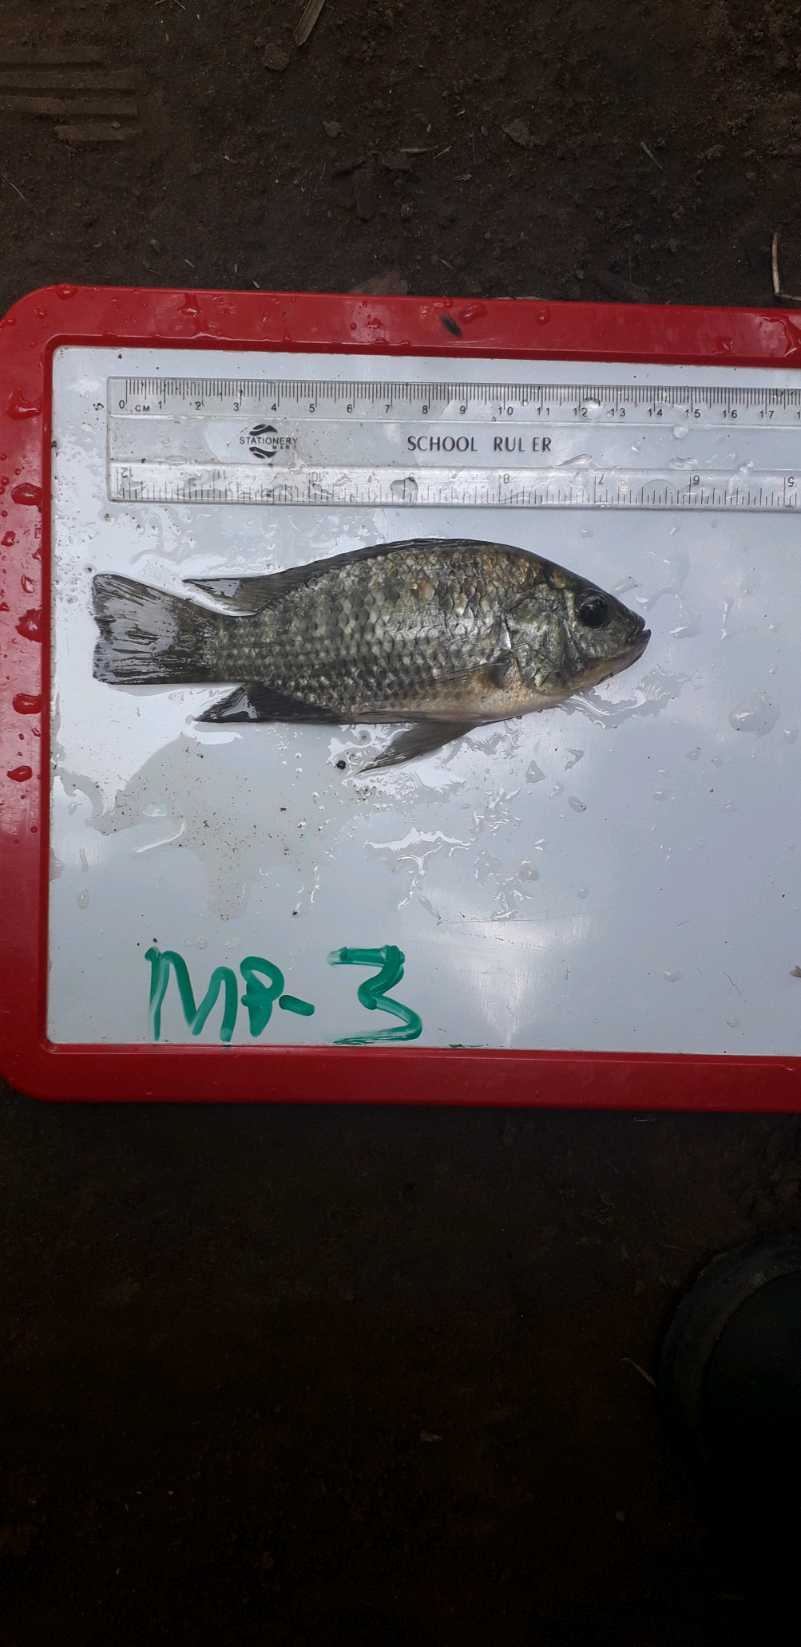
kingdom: Animalia
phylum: Chordata
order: Perciformes
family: Cichlidae
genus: Oreochromis
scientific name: Oreochromis leucostictus
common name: Blue spotted tilapia
